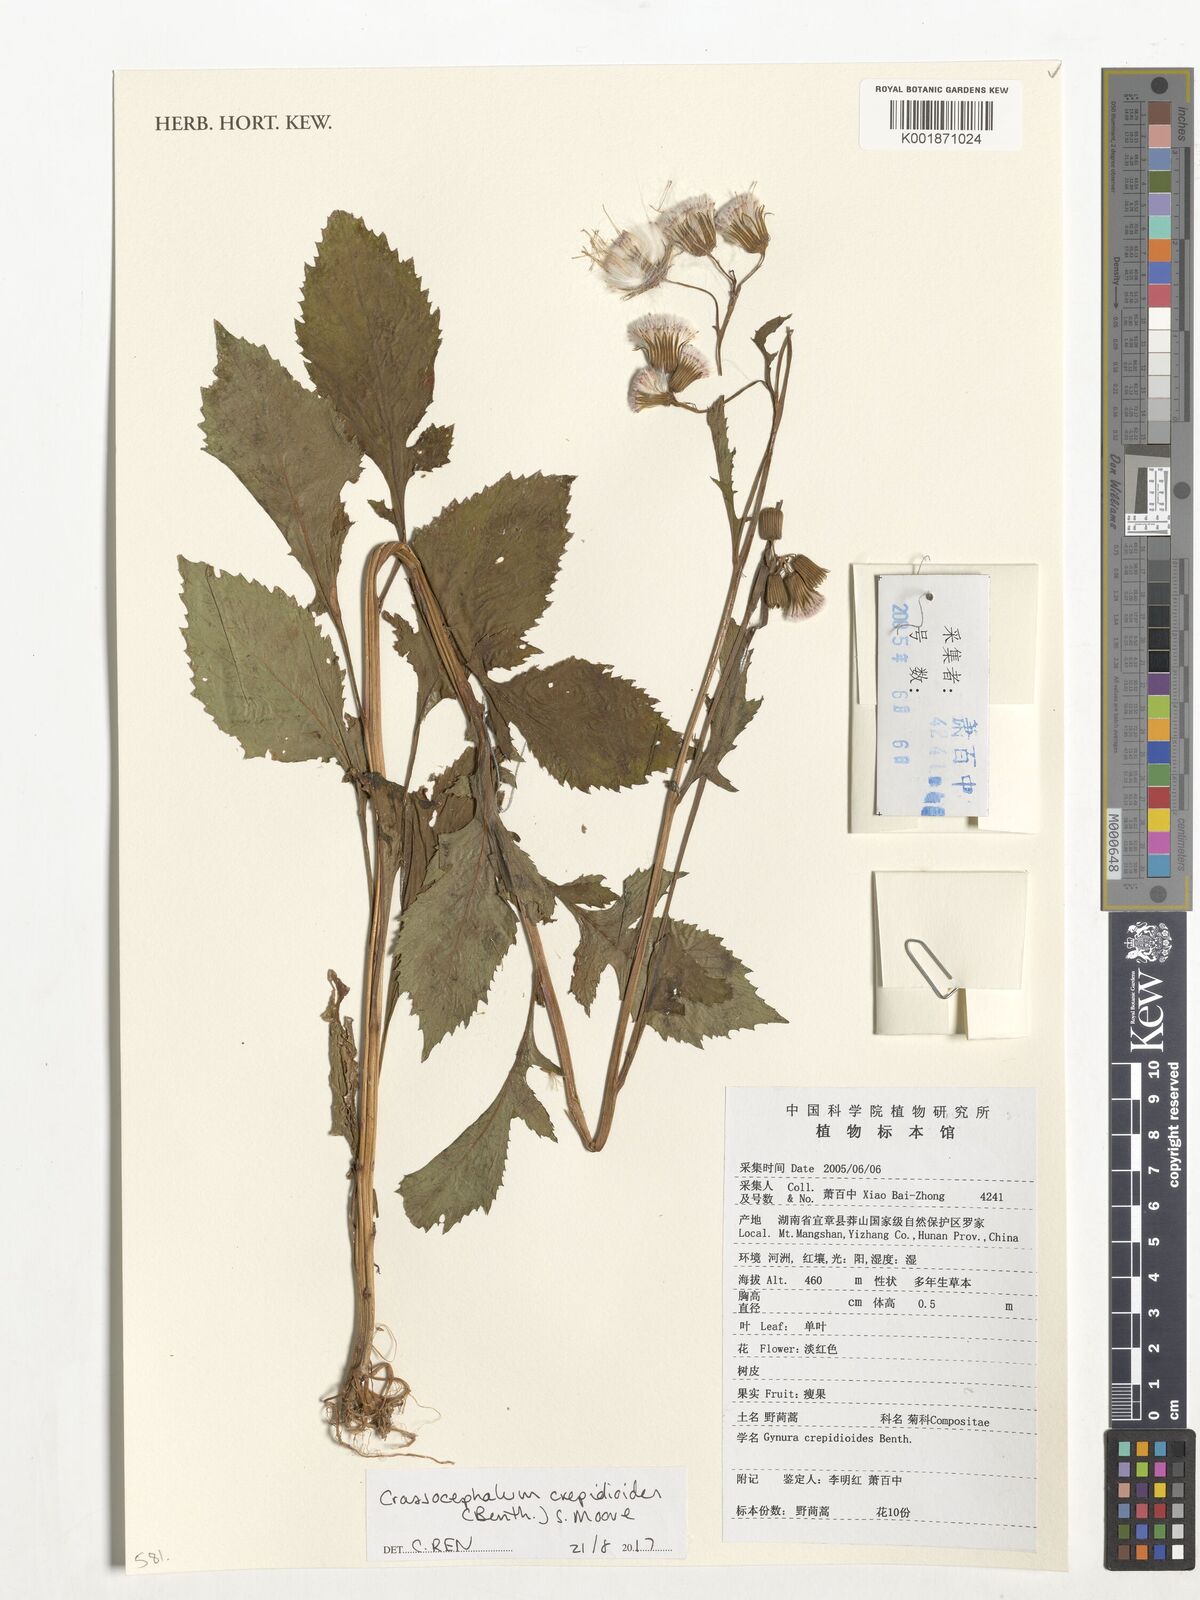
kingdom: Plantae
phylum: Tracheophyta
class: Magnoliopsida
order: Asterales
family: Asteraceae
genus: Crassocephalum
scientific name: Crassocephalum crepidioides
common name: Redflower ragleaf
